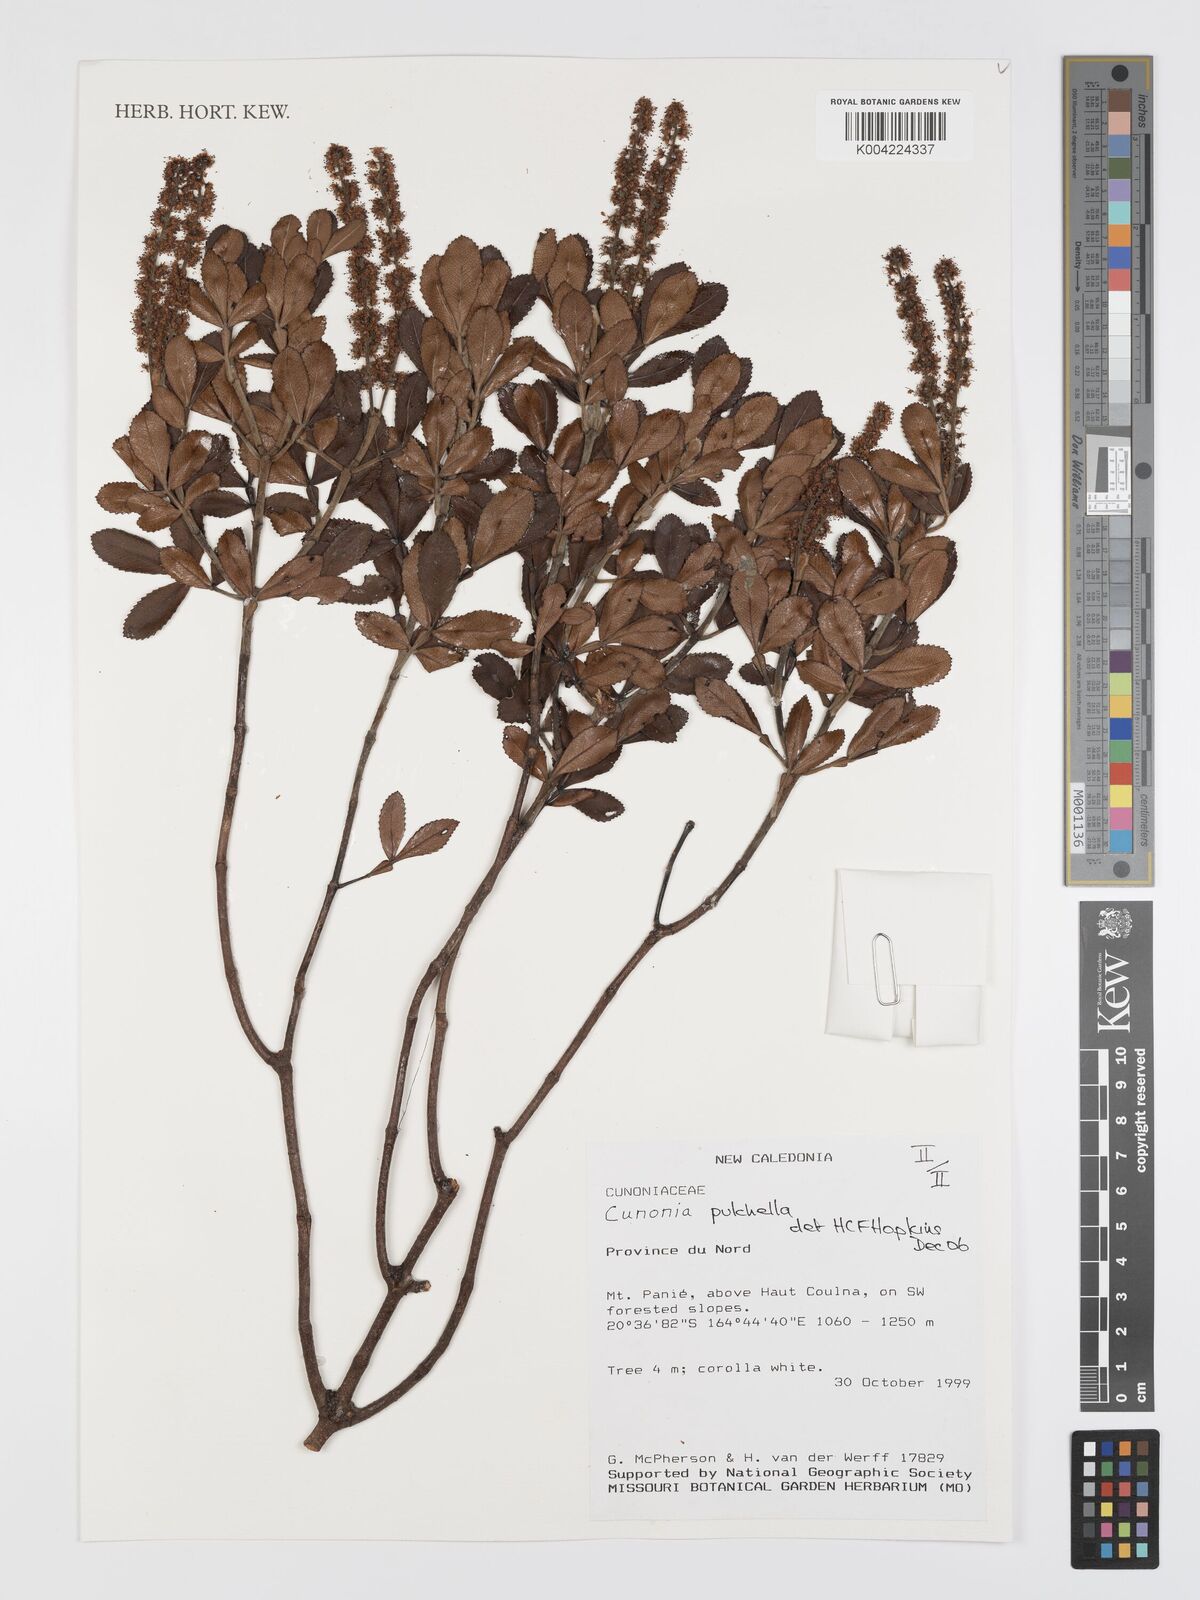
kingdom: Plantae
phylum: Tracheophyta
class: Magnoliopsida
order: Oxalidales
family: Cunoniaceae
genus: Cunonia
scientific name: Cunonia pulchella
